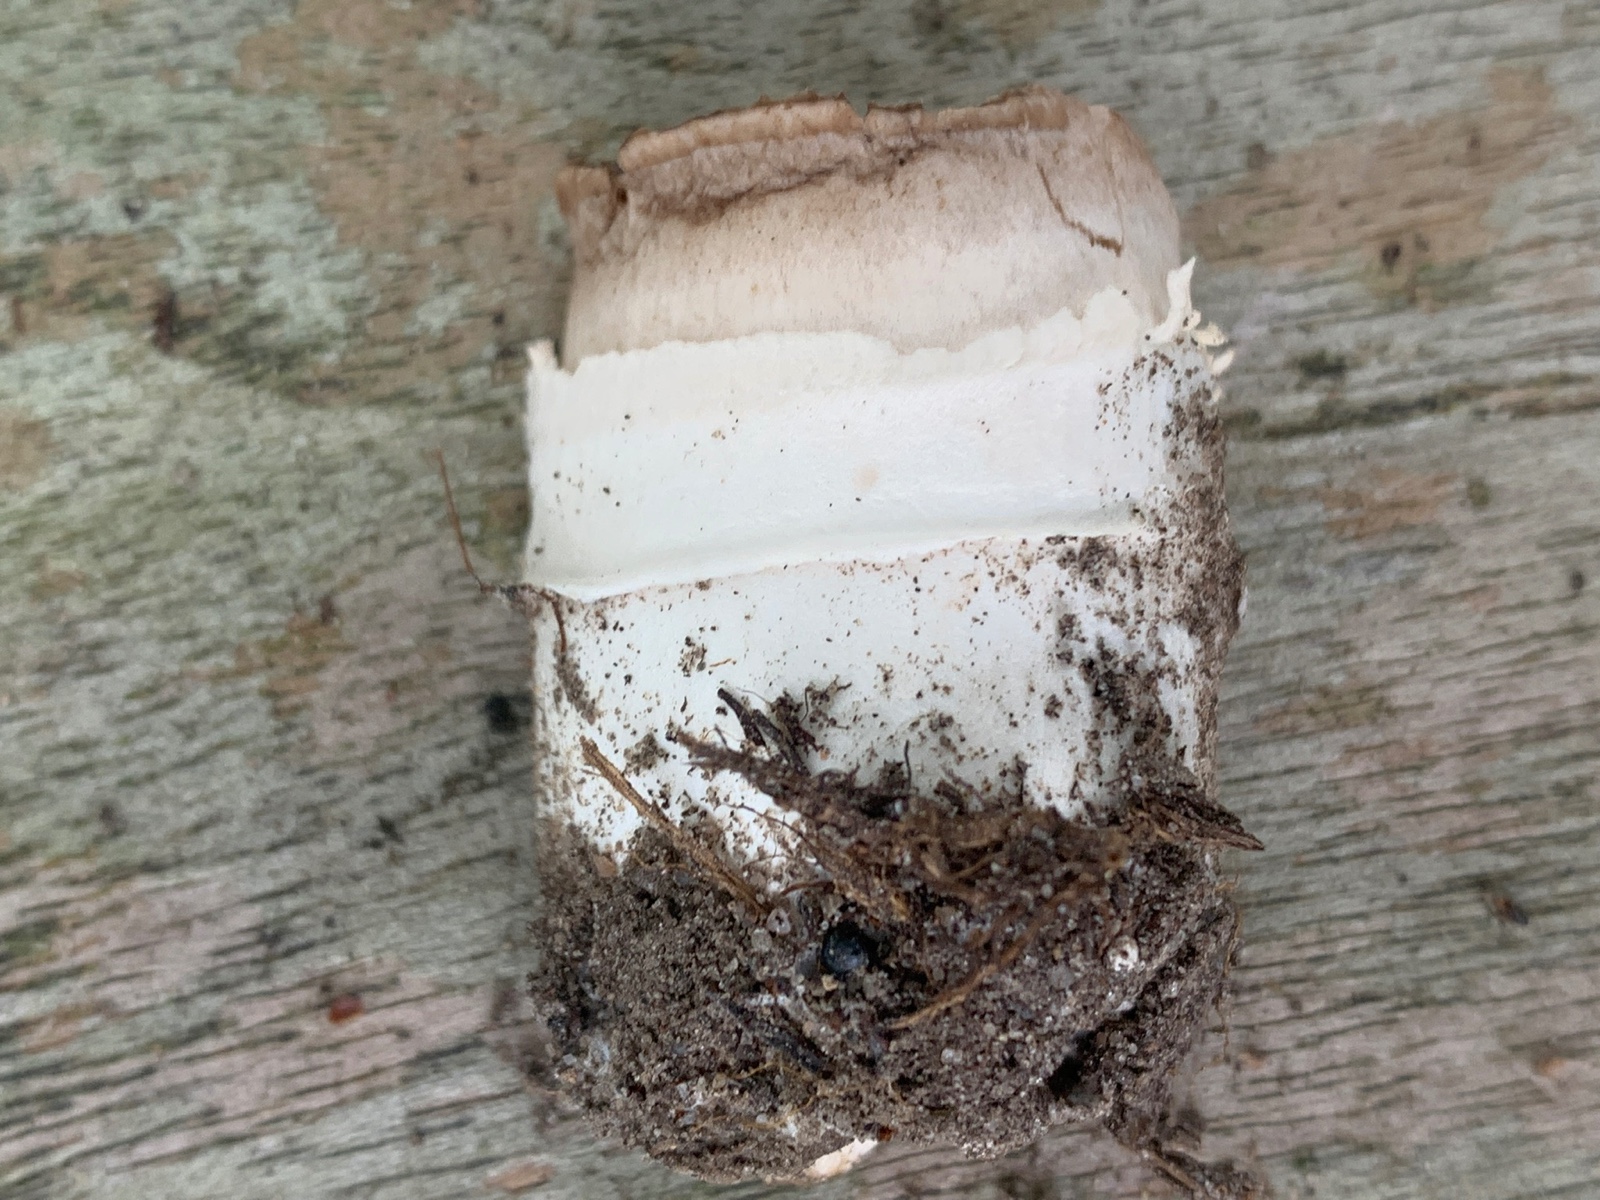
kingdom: Fungi
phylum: Basidiomycota
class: Agaricomycetes
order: Agaricales
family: Agaricaceae
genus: Agaricus
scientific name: Agaricus bitorquis
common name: vej-champignon
